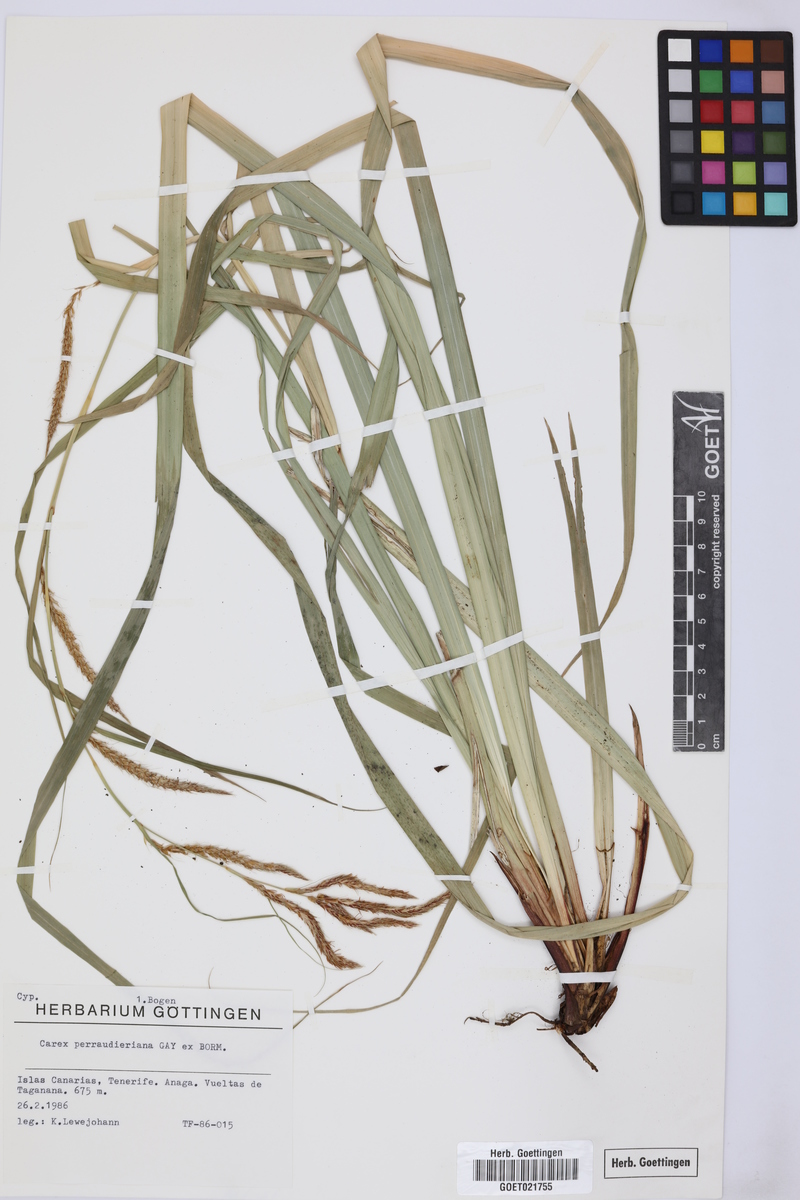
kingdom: Plantae
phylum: Tracheophyta
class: Liliopsida
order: Poales
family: Cyperaceae
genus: Carex
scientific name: Carex perraudieriana
